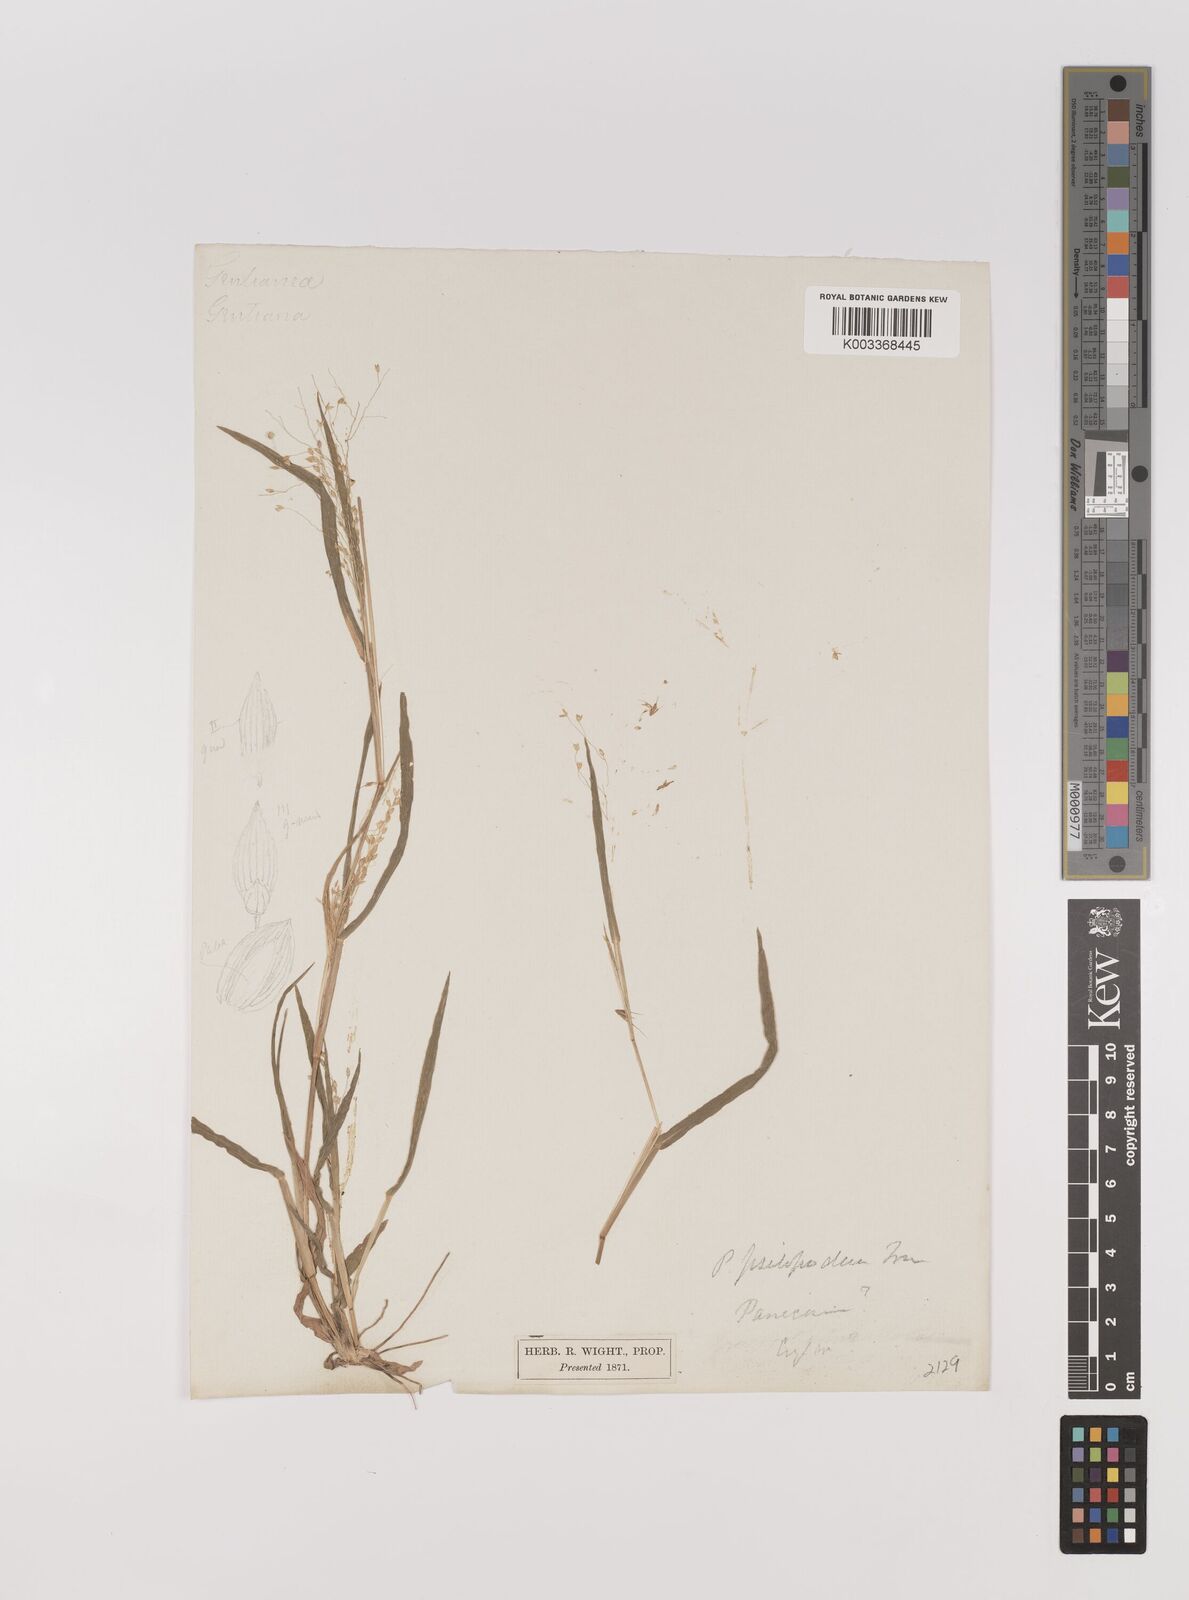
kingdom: Plantae
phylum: Tracheophyta
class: Liliopsida
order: Poales
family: Poaceae
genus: Panicum
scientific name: Panicum sumatrense
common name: Little millet
